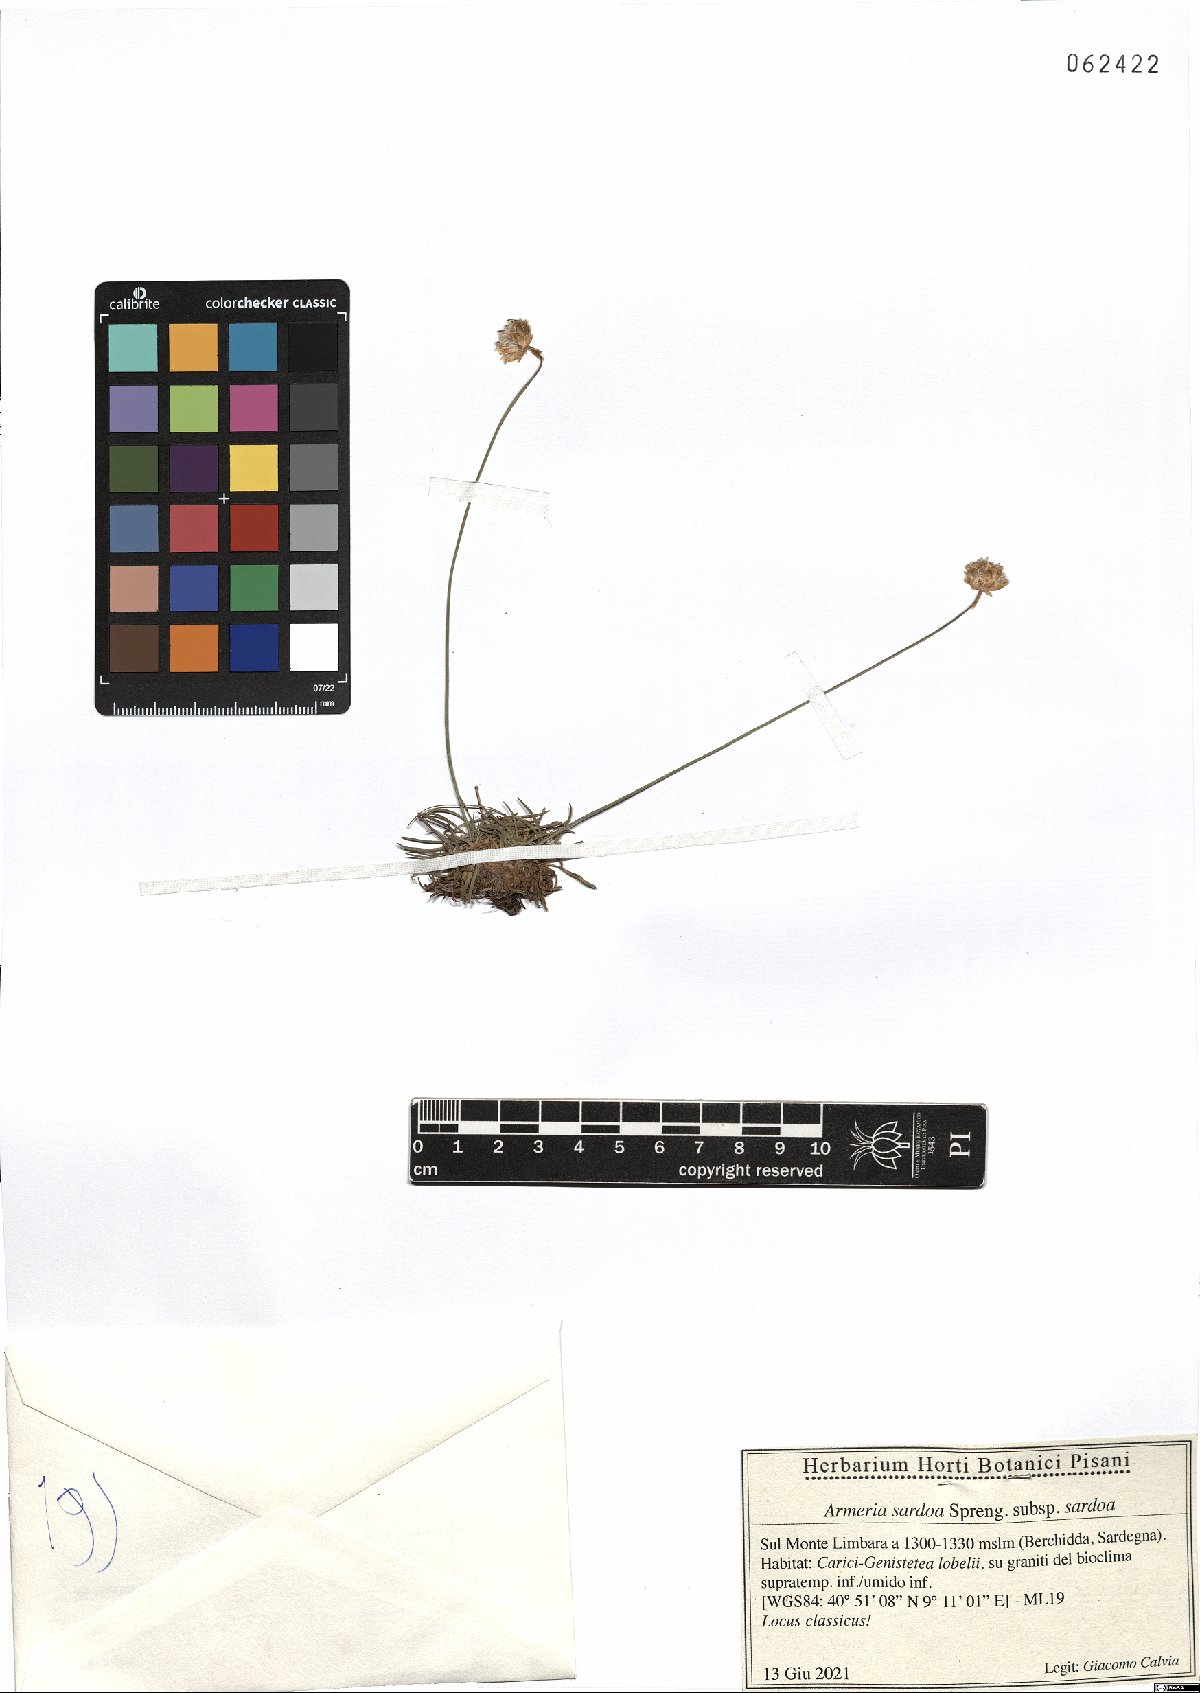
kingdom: Plantae
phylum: Tracheophyta
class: Magnoliopsida
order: Caryophyllales
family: Plumbaginaceae
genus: Armeria
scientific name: Armeria sardoa
